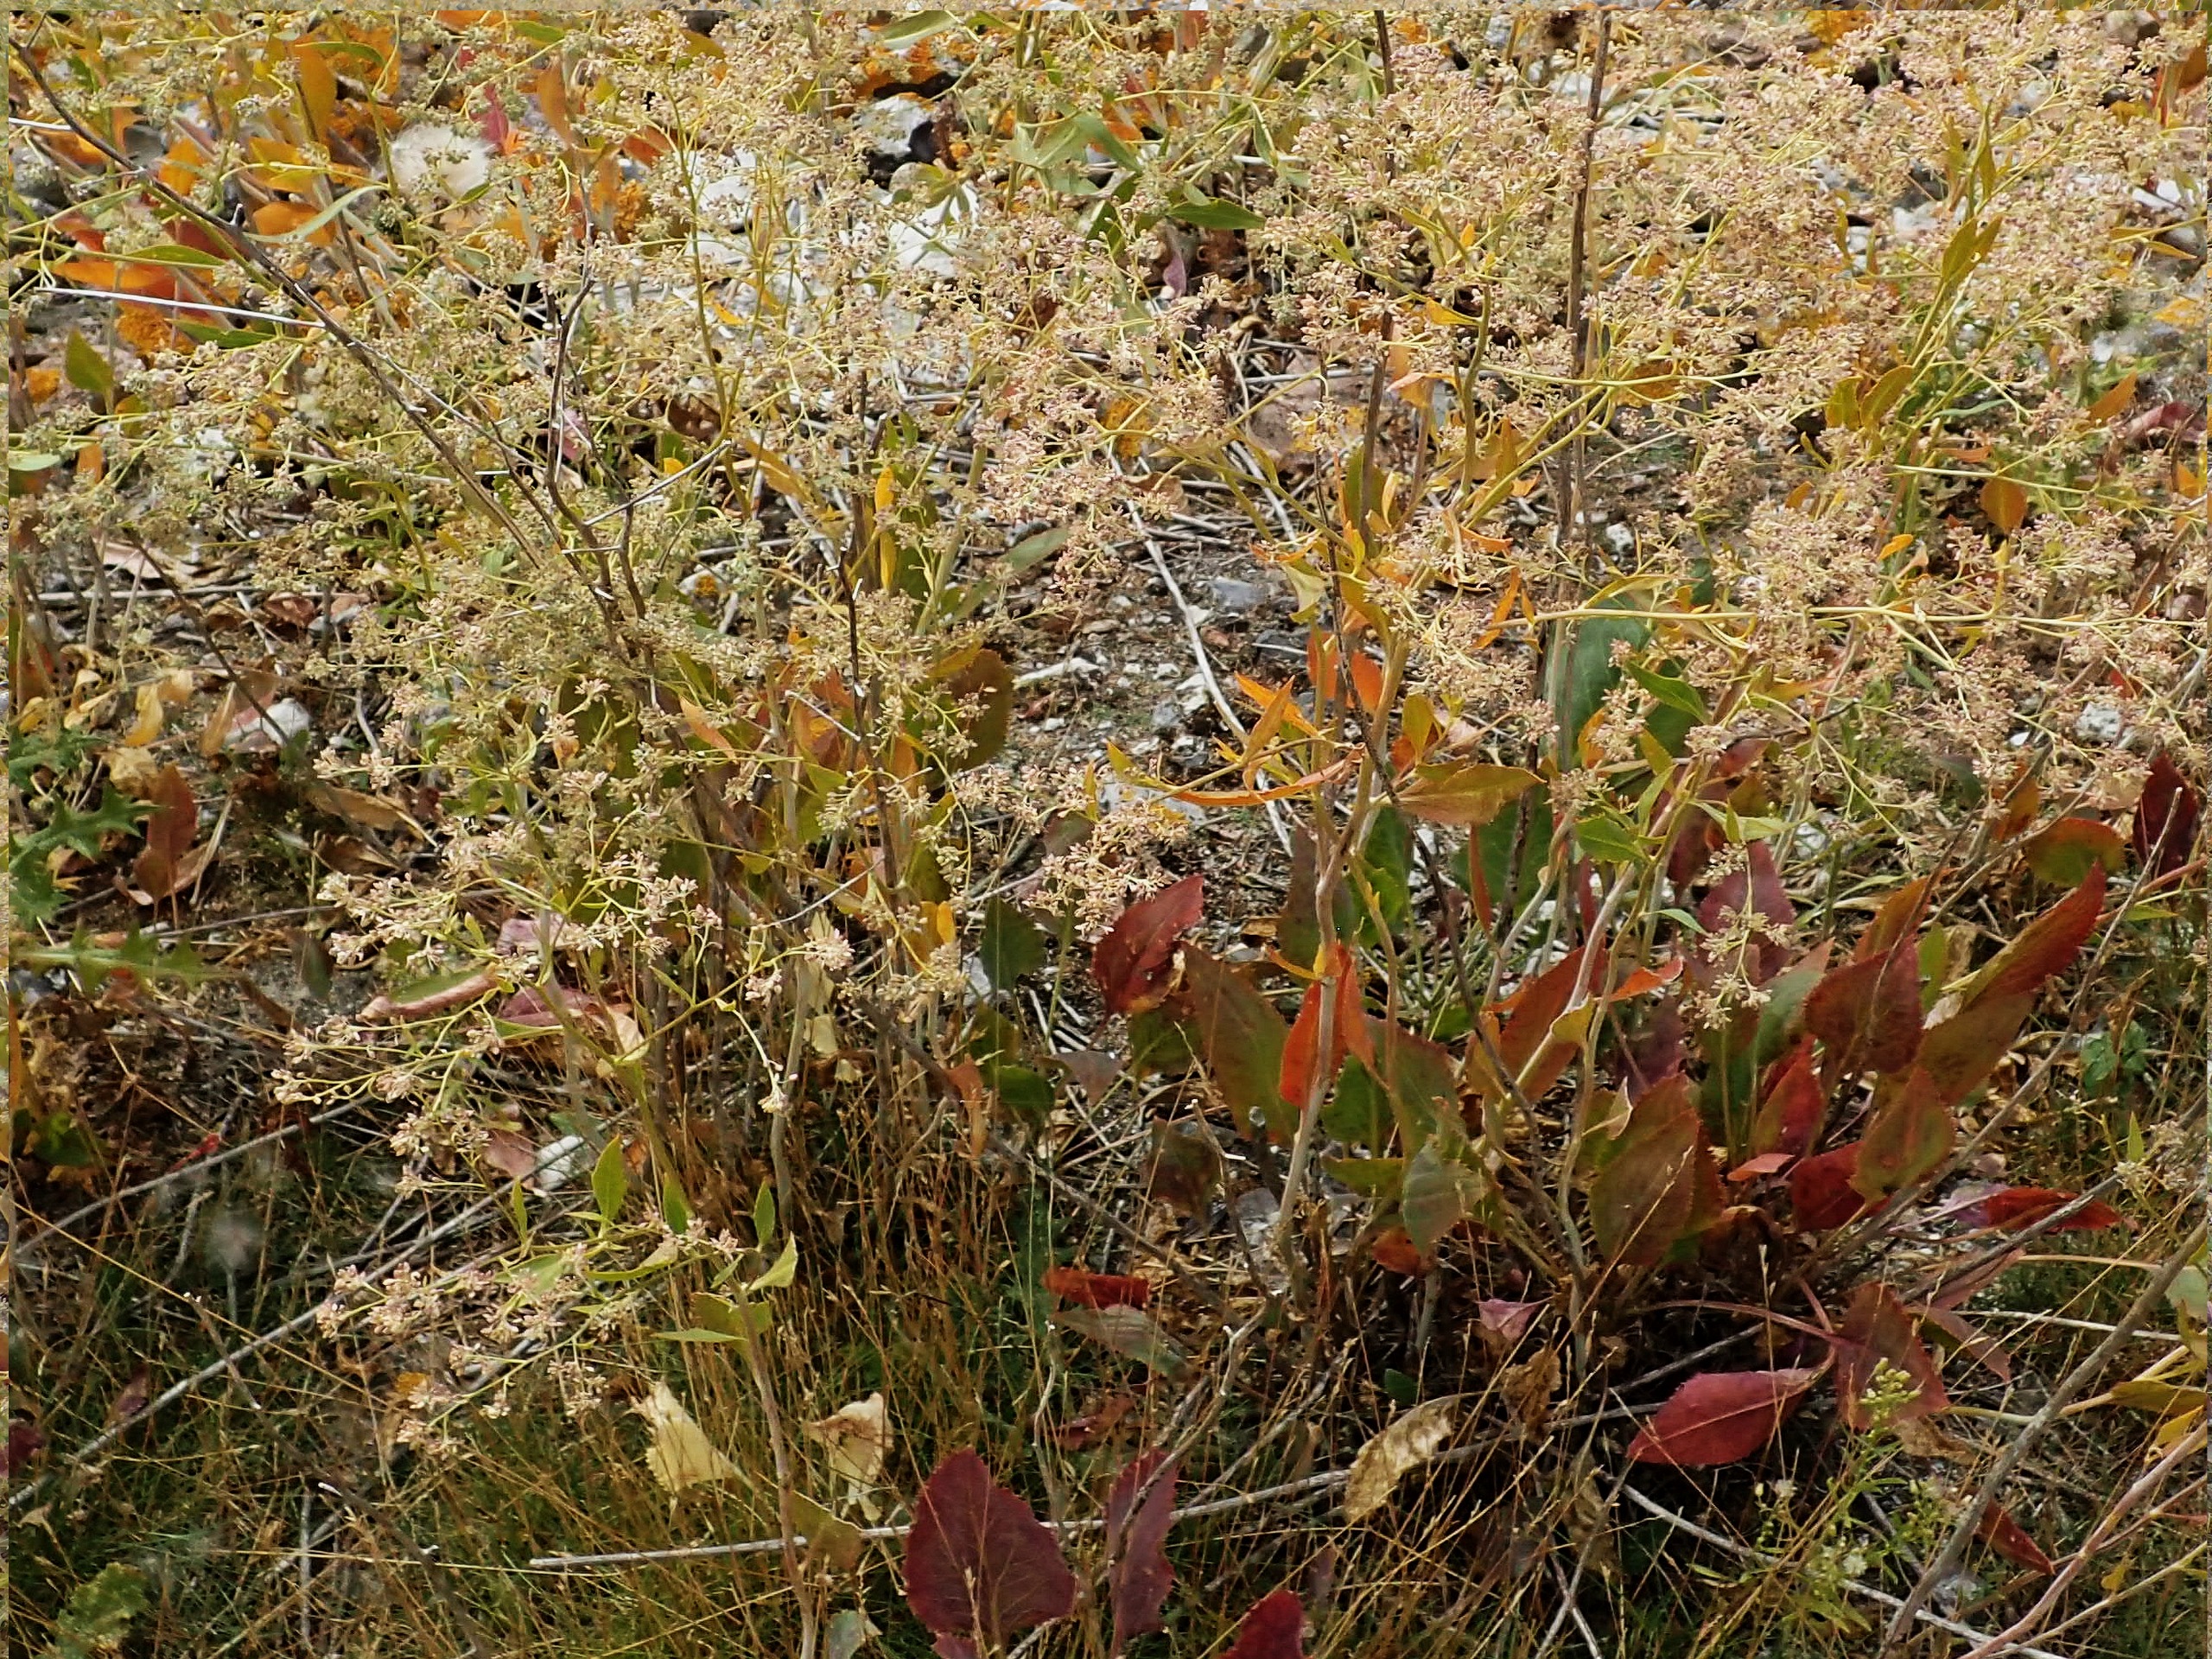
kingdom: Plantae
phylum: Tracheophyta
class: Magnoliopsida
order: Brassicales
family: Brassicaceae
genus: Lepidium
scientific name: Lepidium latifolium
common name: Strand-karse
